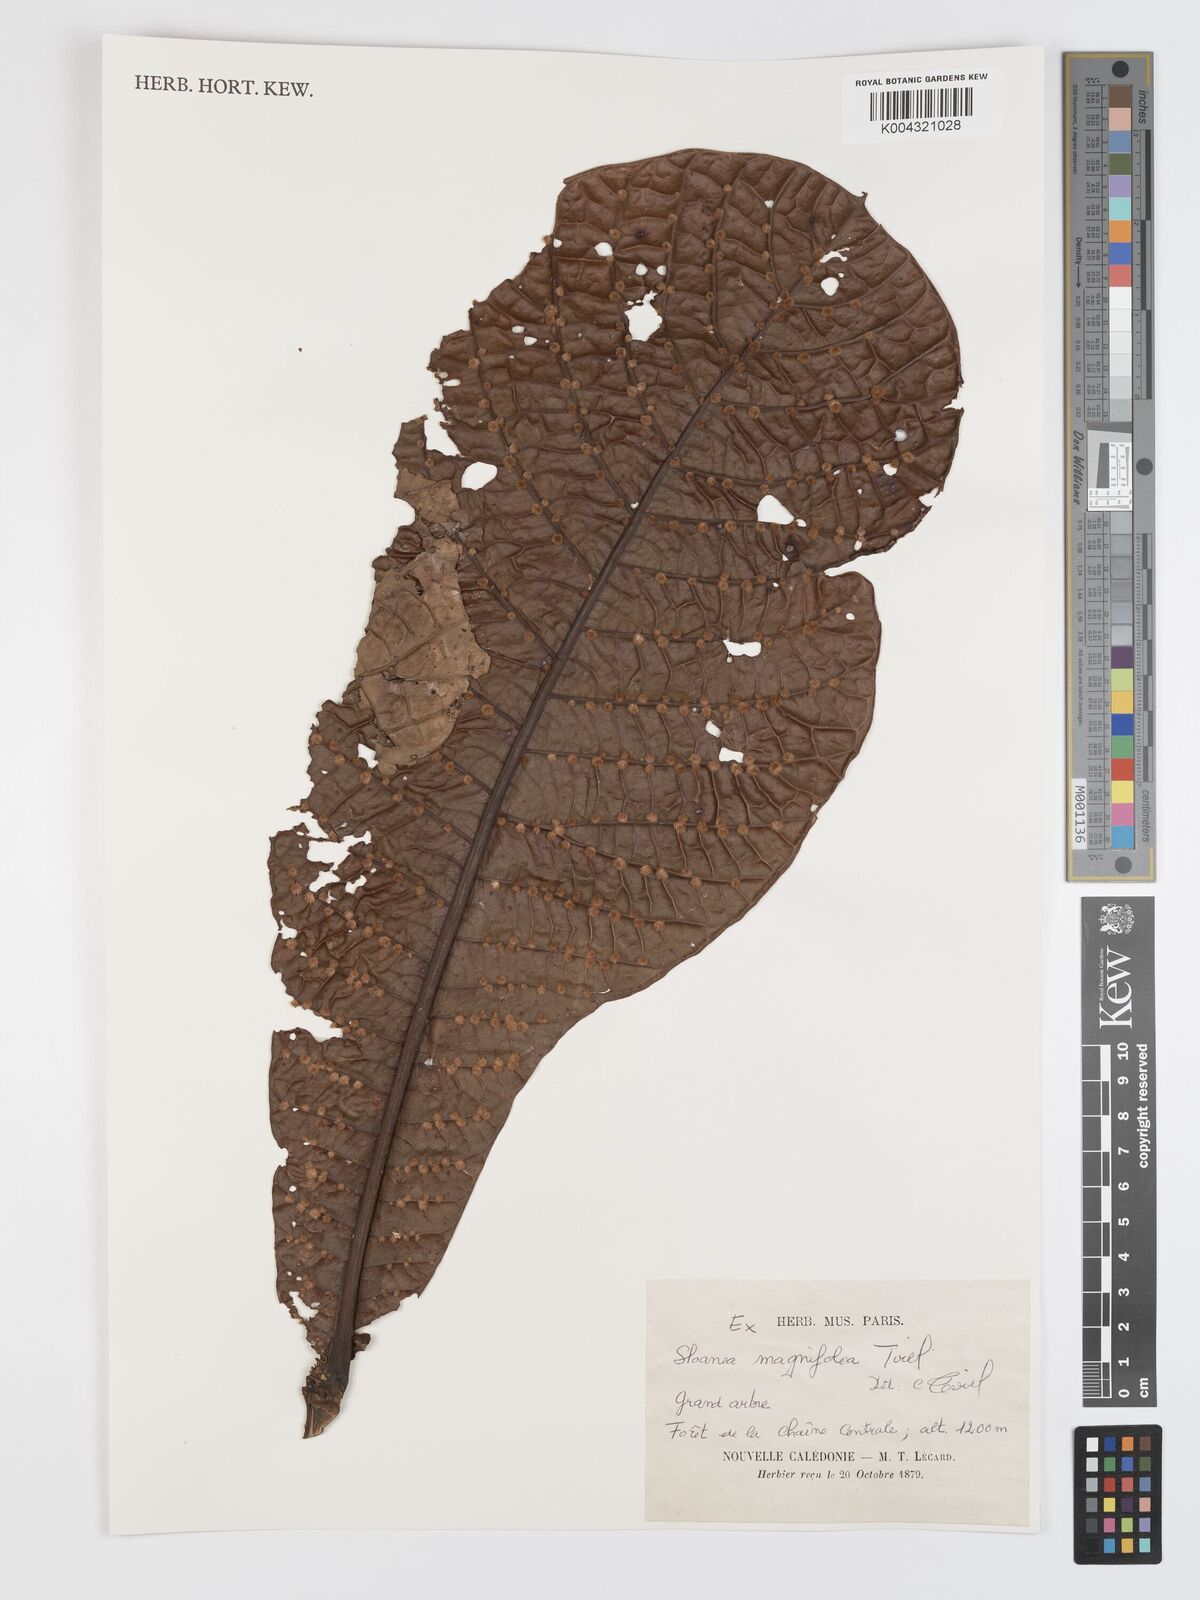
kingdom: Plantae
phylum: Tracheophyta
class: Magnoliopsida
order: Oxalidales
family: Elaeocarpaceae
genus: Sloanea
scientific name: Sloanea magnifolia
